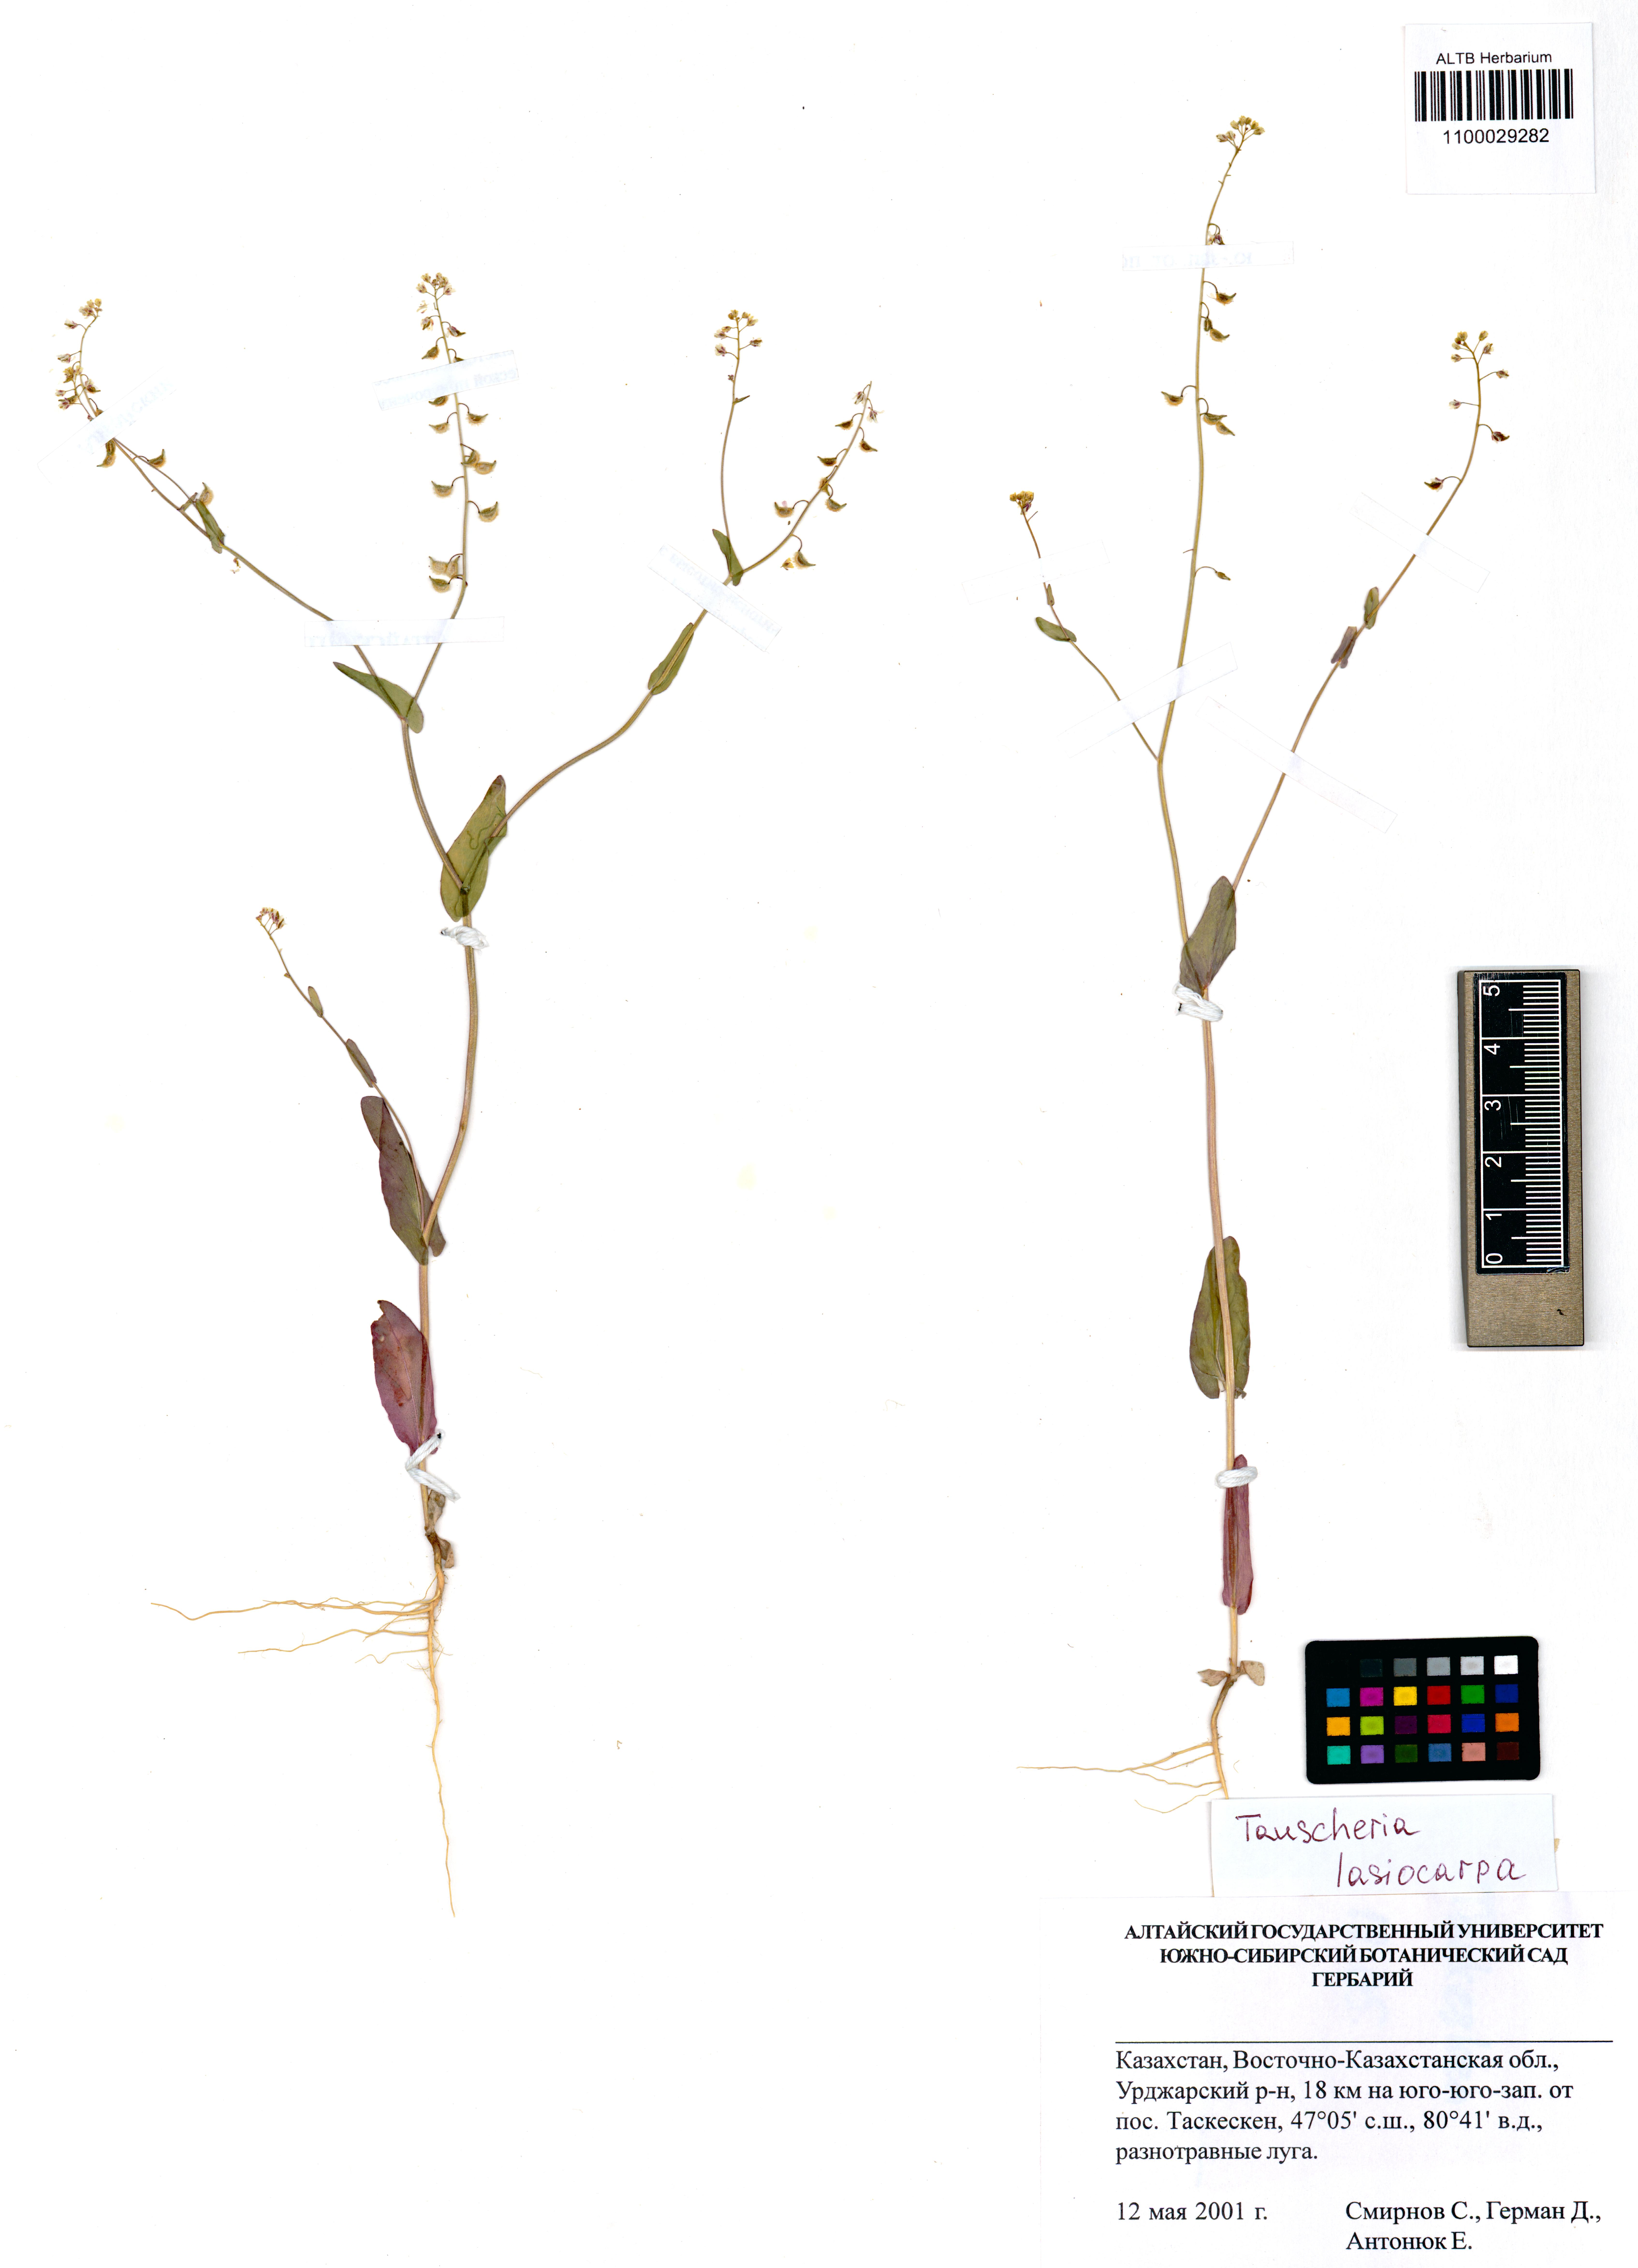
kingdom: Plantae
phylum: Tracheophyta
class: Magnoliopsida
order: Brassicales
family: Brassicaceae
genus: Tauscheria
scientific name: Tauscheria lasiocarpa
